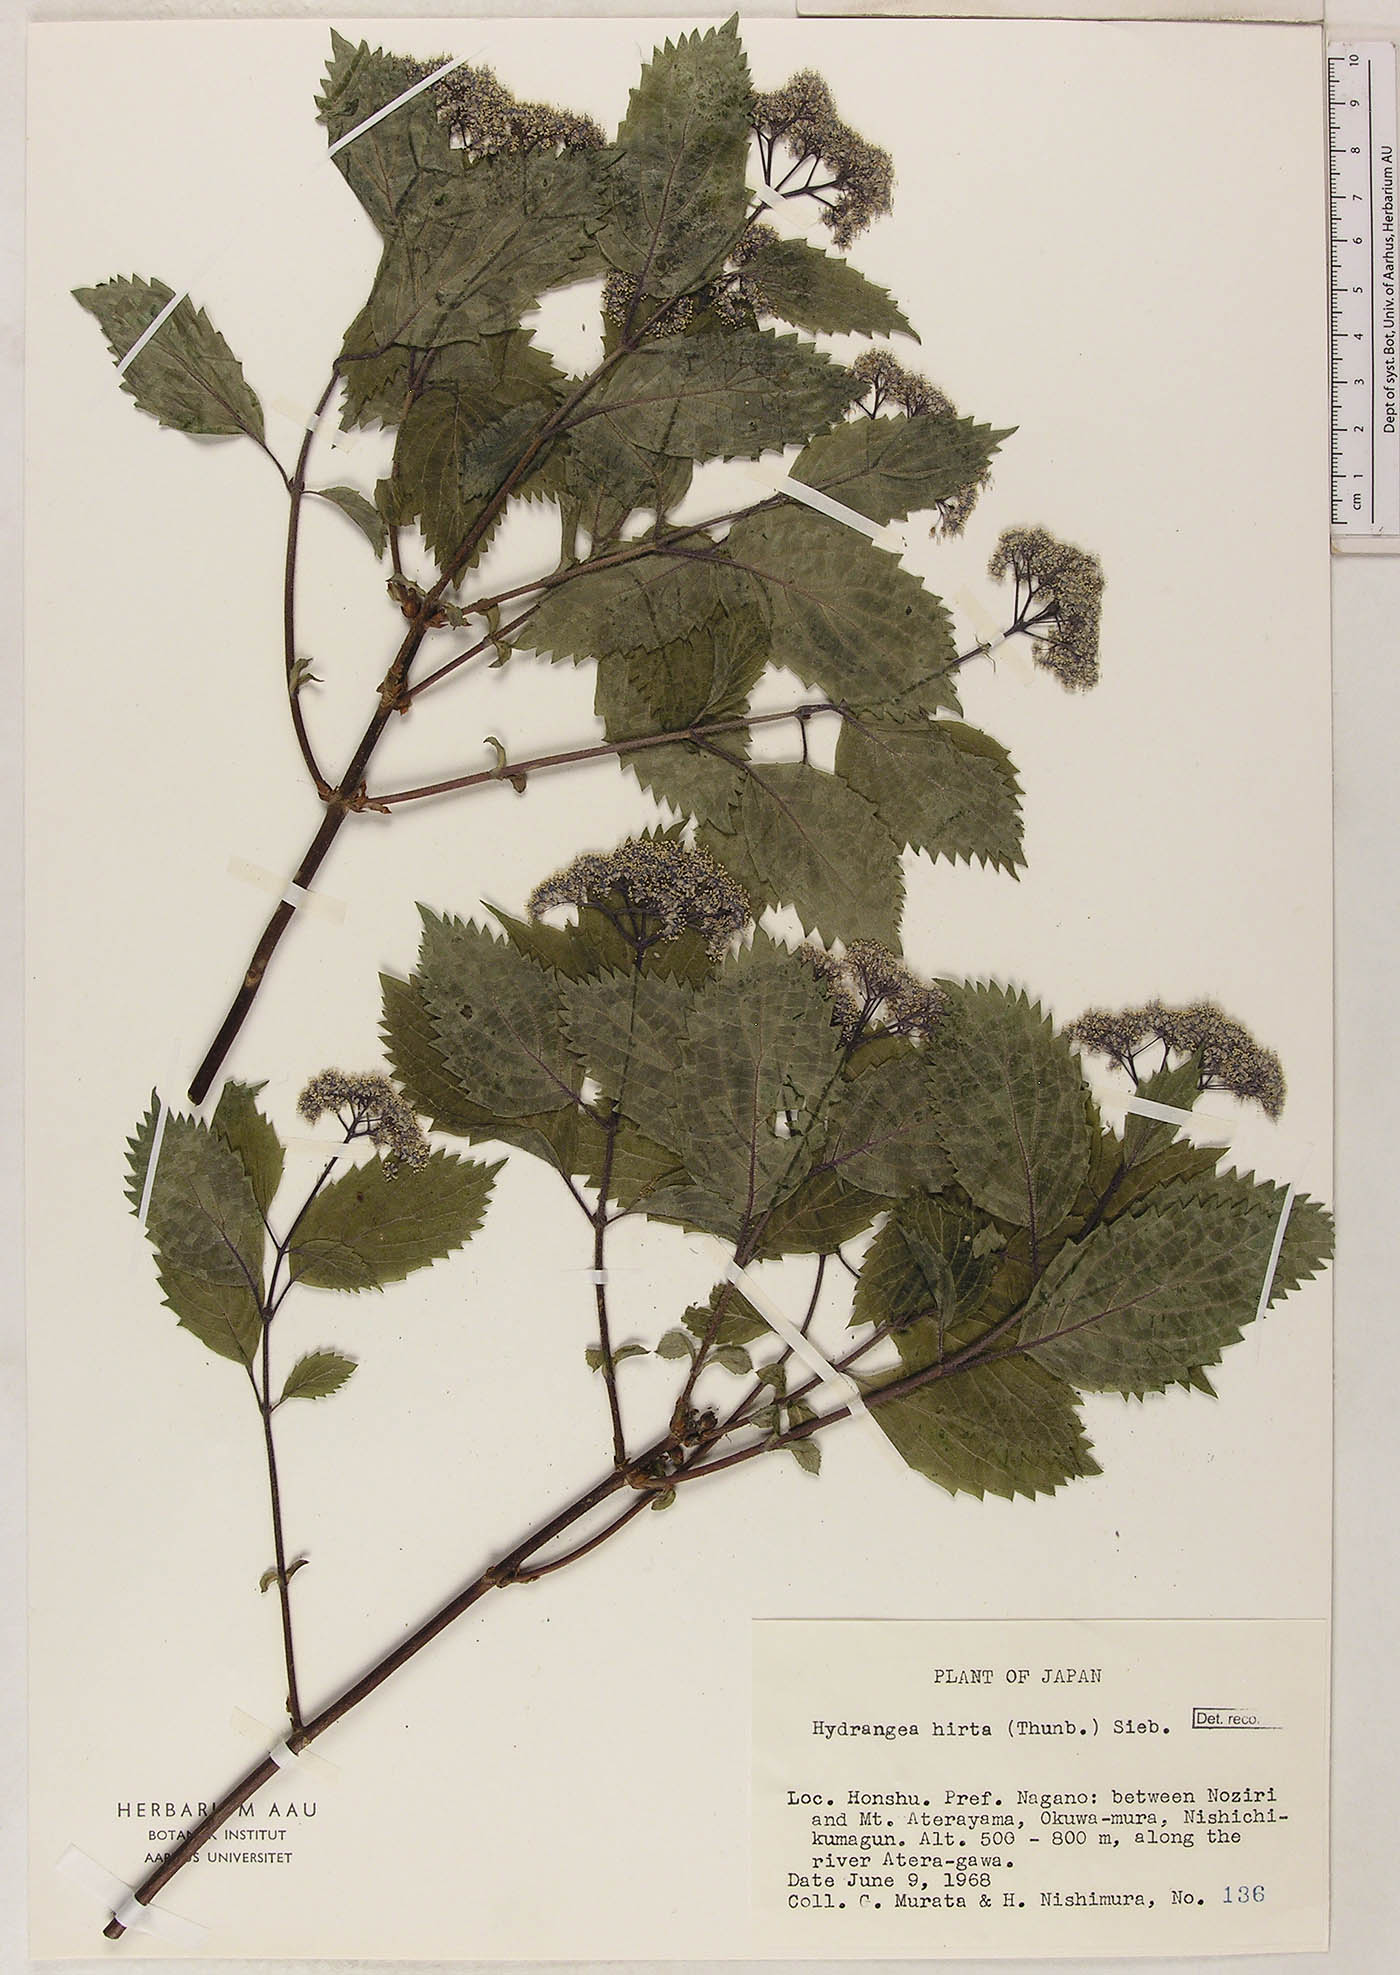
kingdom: Plantae
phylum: Tracheophyta
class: Magnoliopsida
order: Cornales
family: Hydrangeaceae
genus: Hydrangea
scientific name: Hydrangea hirta
